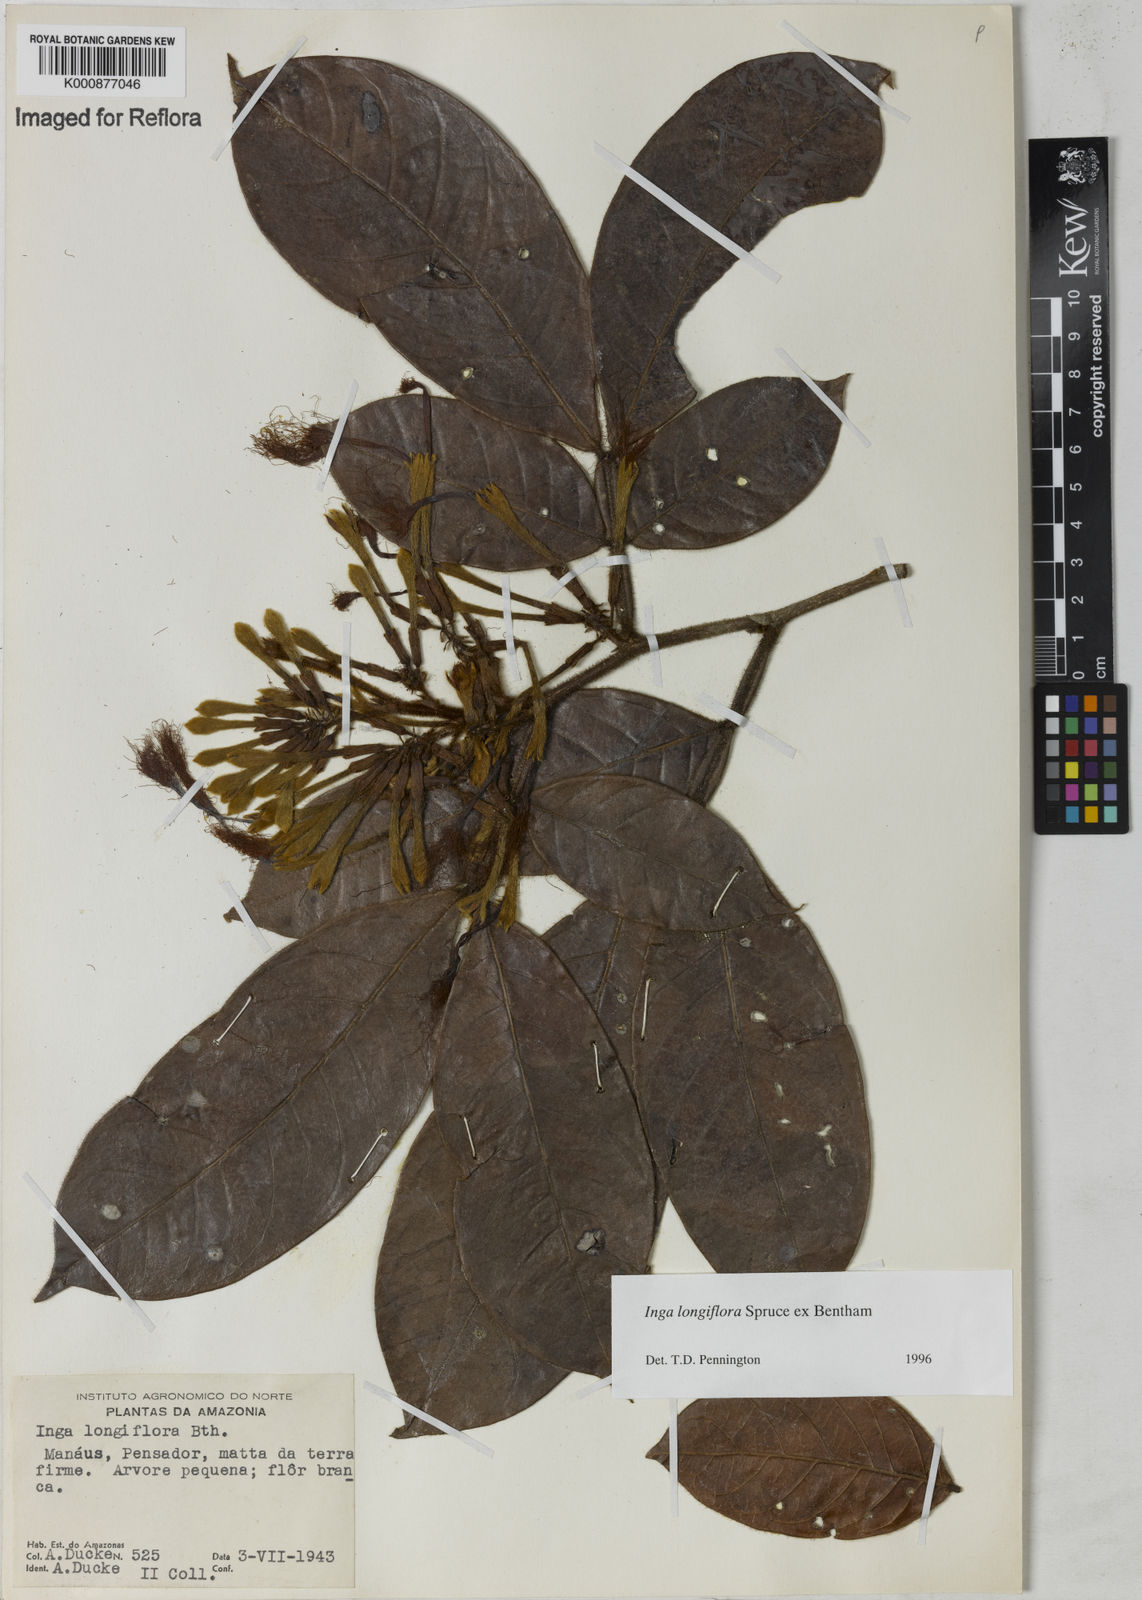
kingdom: Plantae
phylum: Tracheophyta
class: Magnoliopsida
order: Fabales
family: Fabaceae
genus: Inga
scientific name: Inga longiflora
